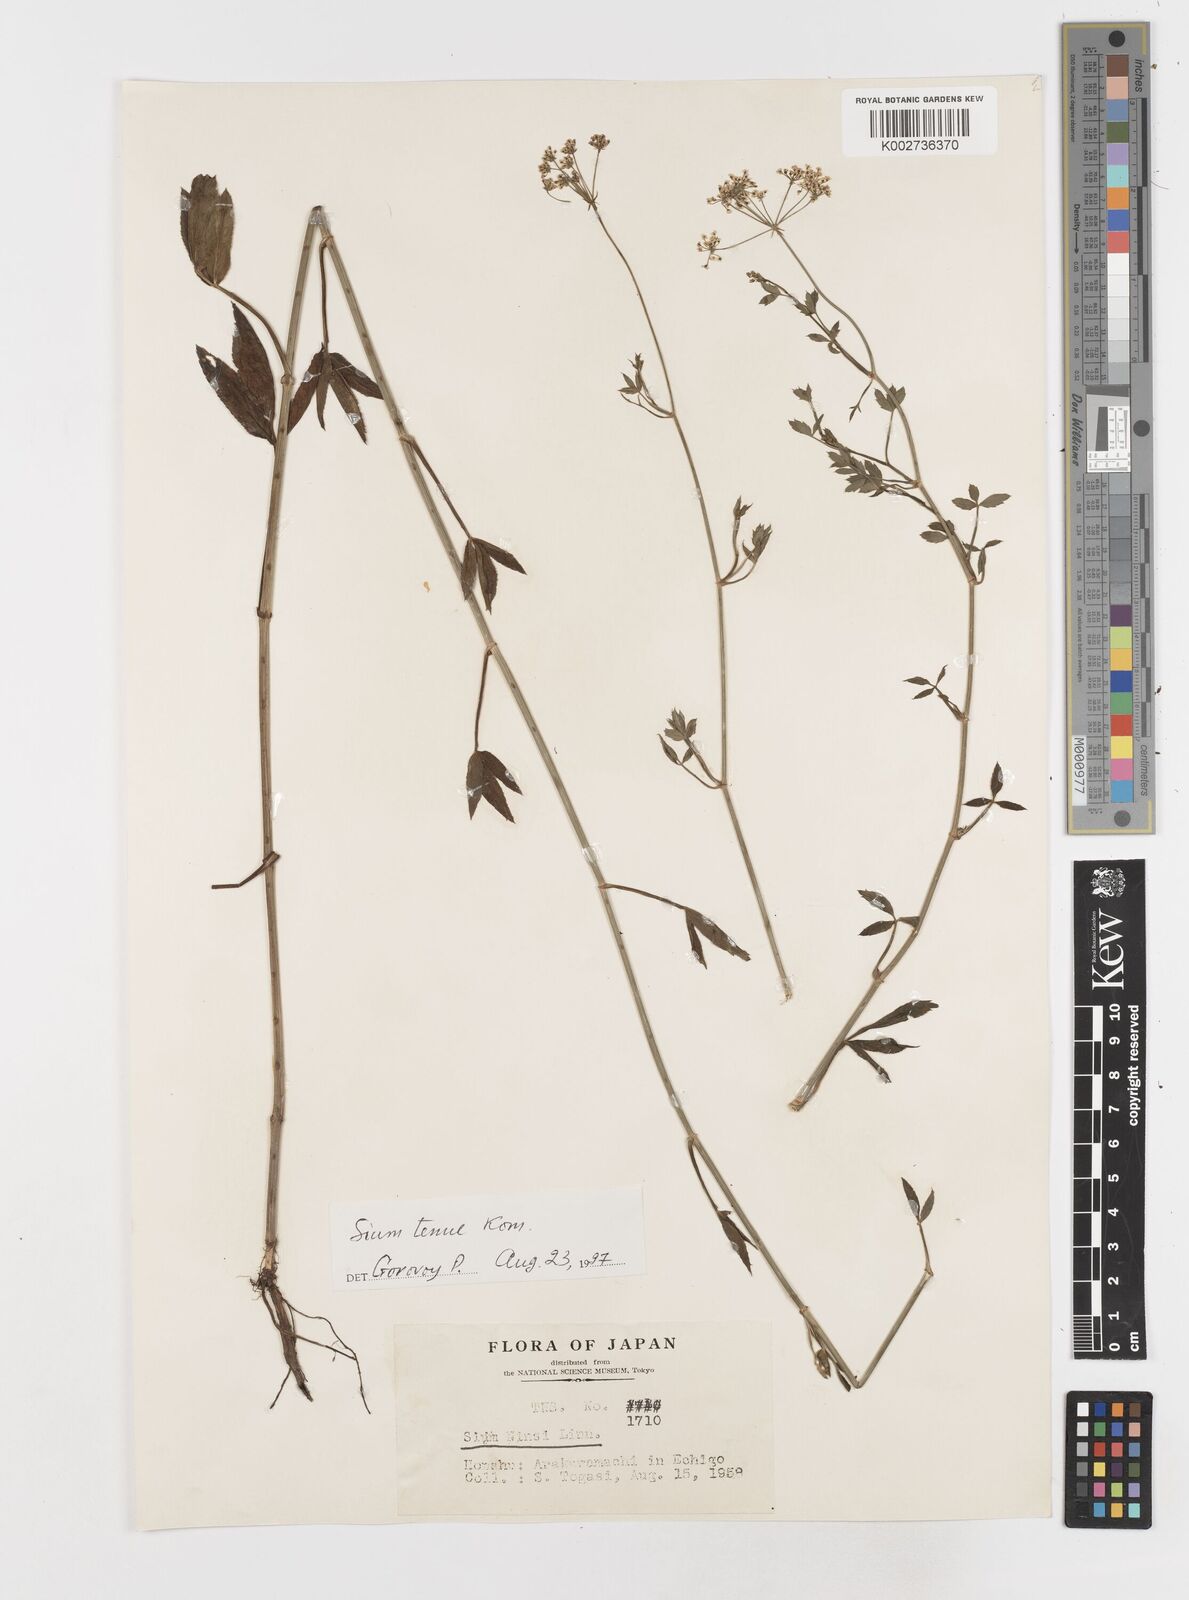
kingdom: Plantae
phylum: Tracheophyta
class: Magnoliopsida
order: Apiales
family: Apiaceae
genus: Sium
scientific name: Sium ninsi
